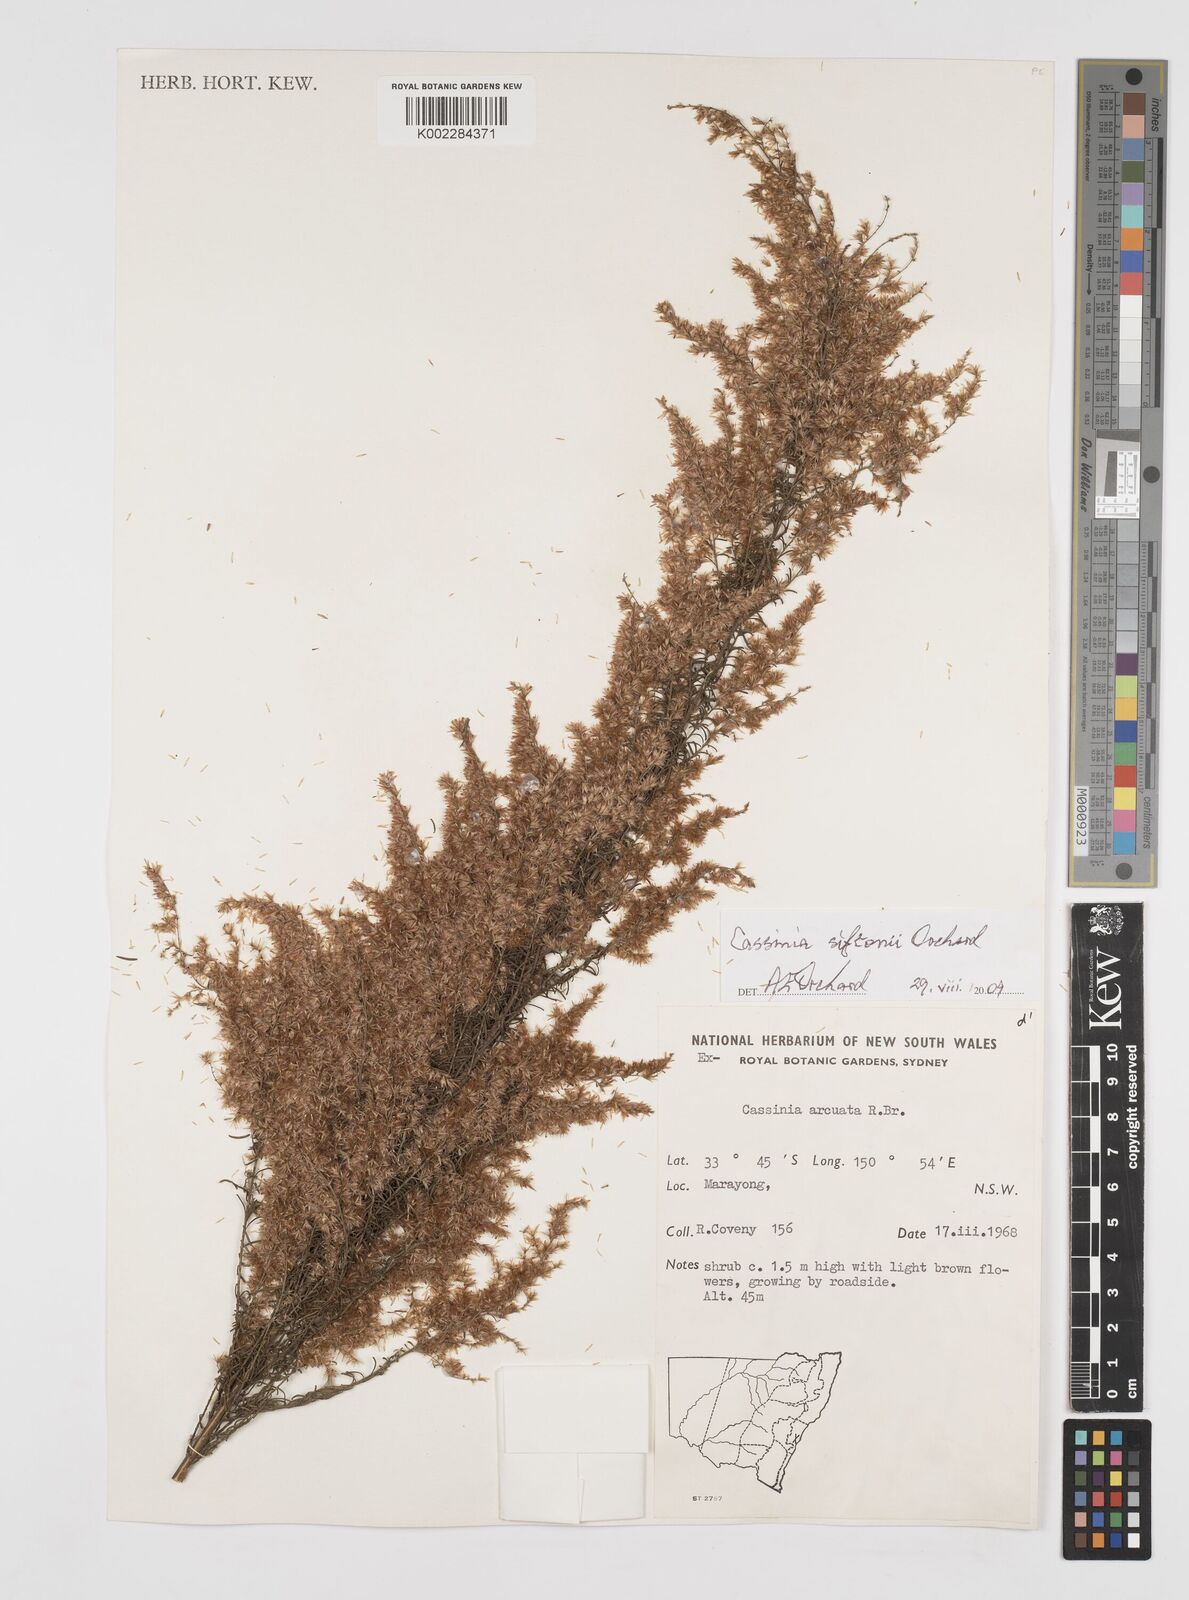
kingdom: Plantae
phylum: Tracheophyta
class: Magnoliopsida
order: Asterales
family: Asteraceae
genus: Cassinia
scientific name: Cassinia arcuata
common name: Chineseshrub
